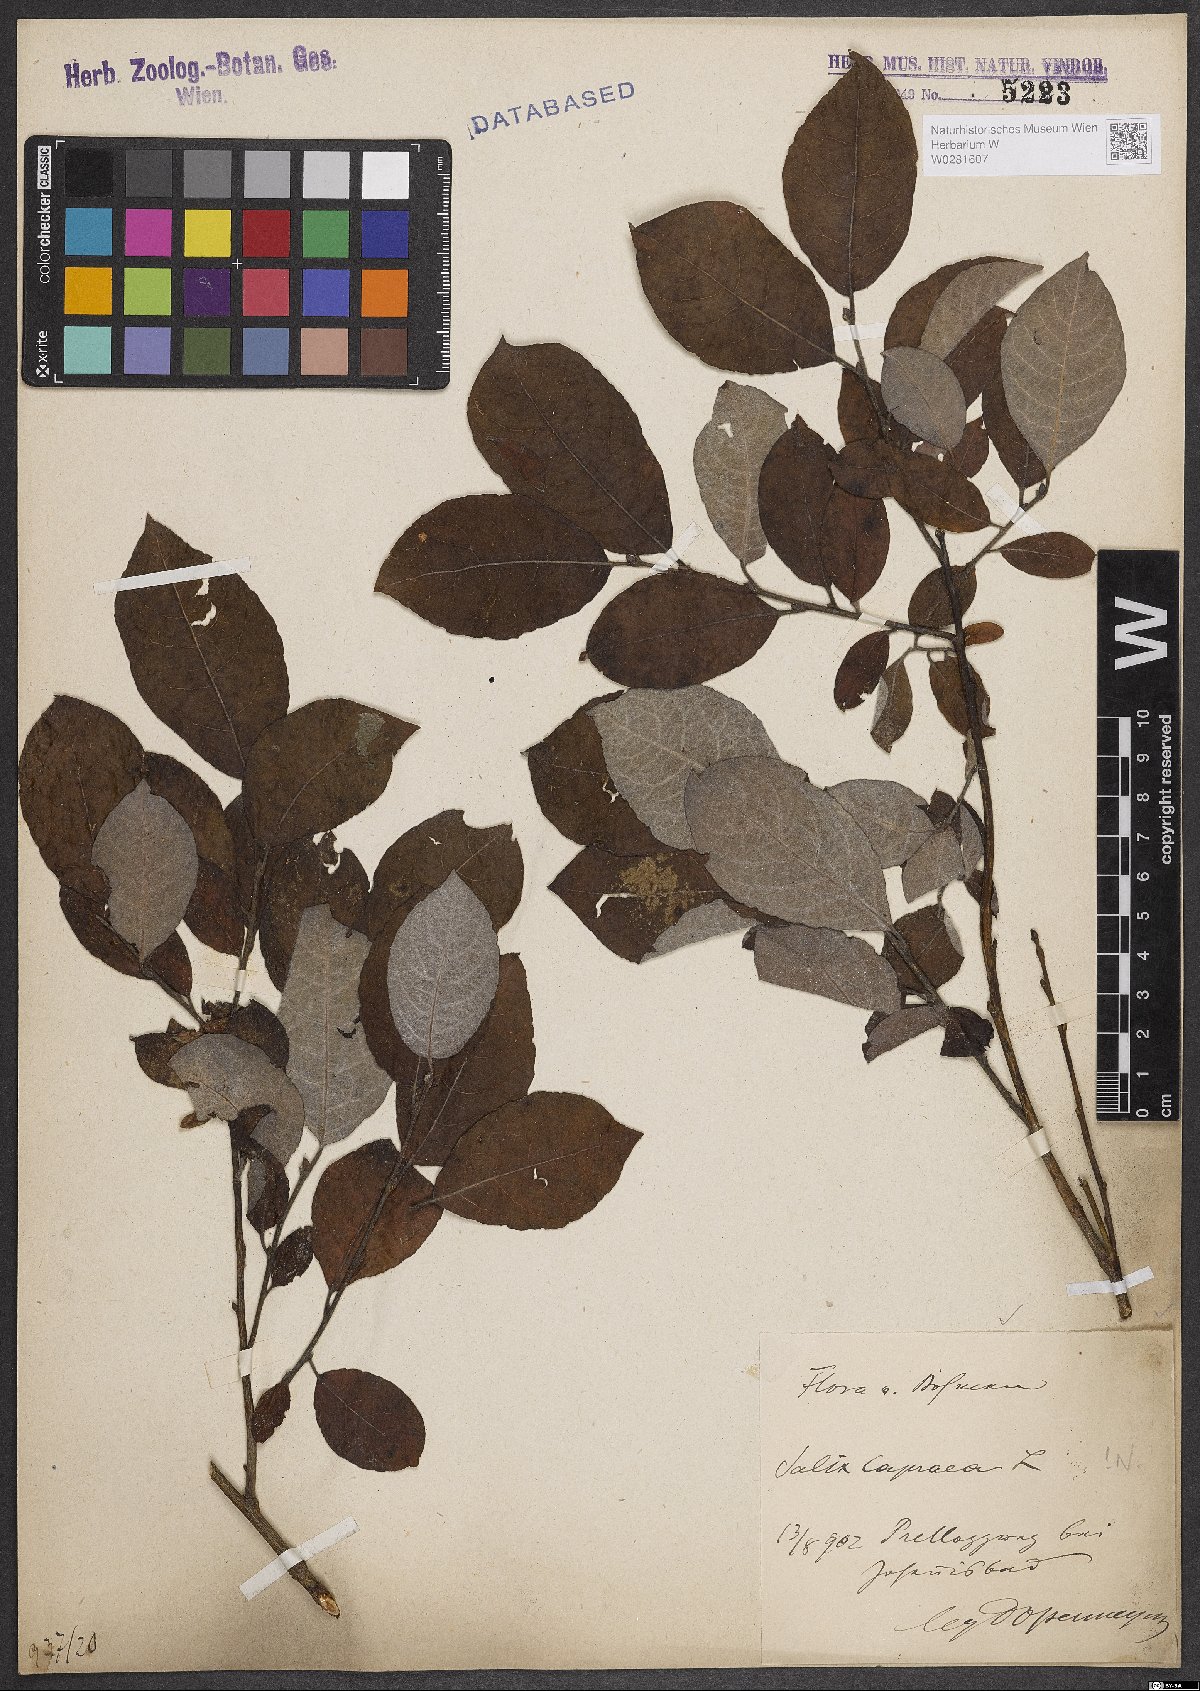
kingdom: Plantae
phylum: Tracheophyta
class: Magnoliopsida
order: Malpighiales
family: Salicaceae
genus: Salix
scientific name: Salix caprea
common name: Goat willow
